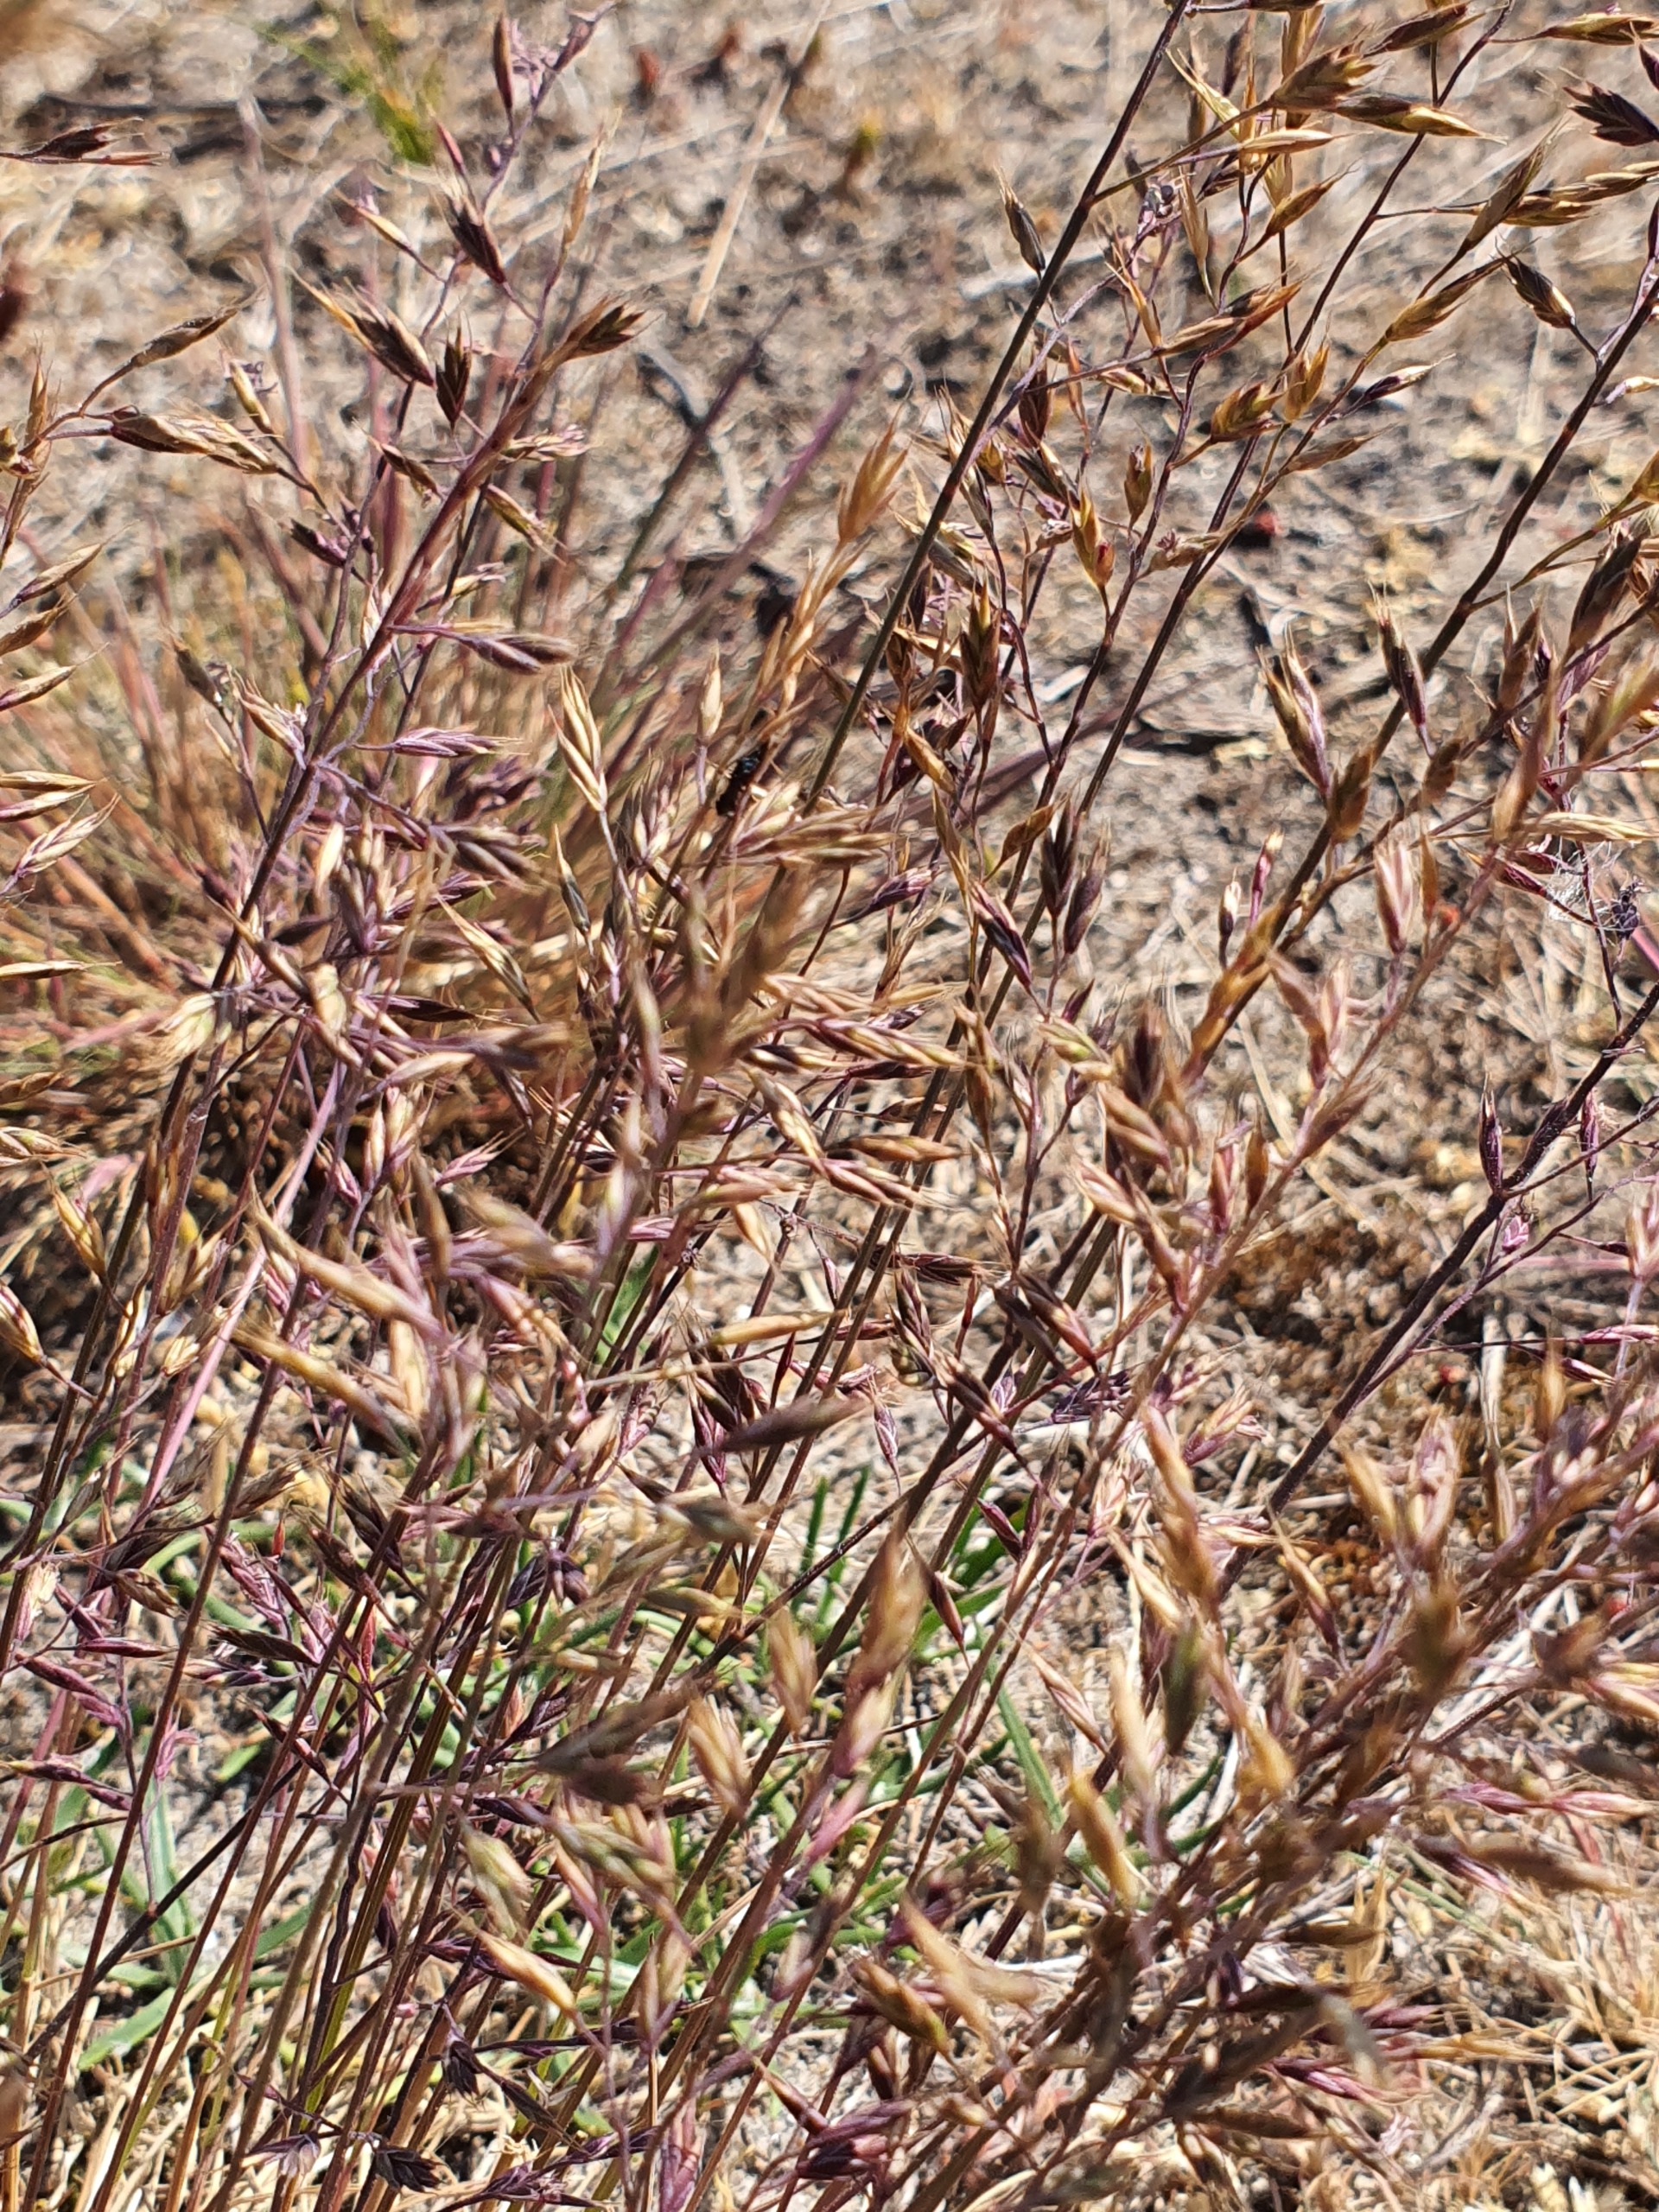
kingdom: Plantae
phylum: Tracheophyta
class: Liliopsida
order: Poales
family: Poaceae
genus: Corynephorus
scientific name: Corynephorus canescens
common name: Sandskæg
